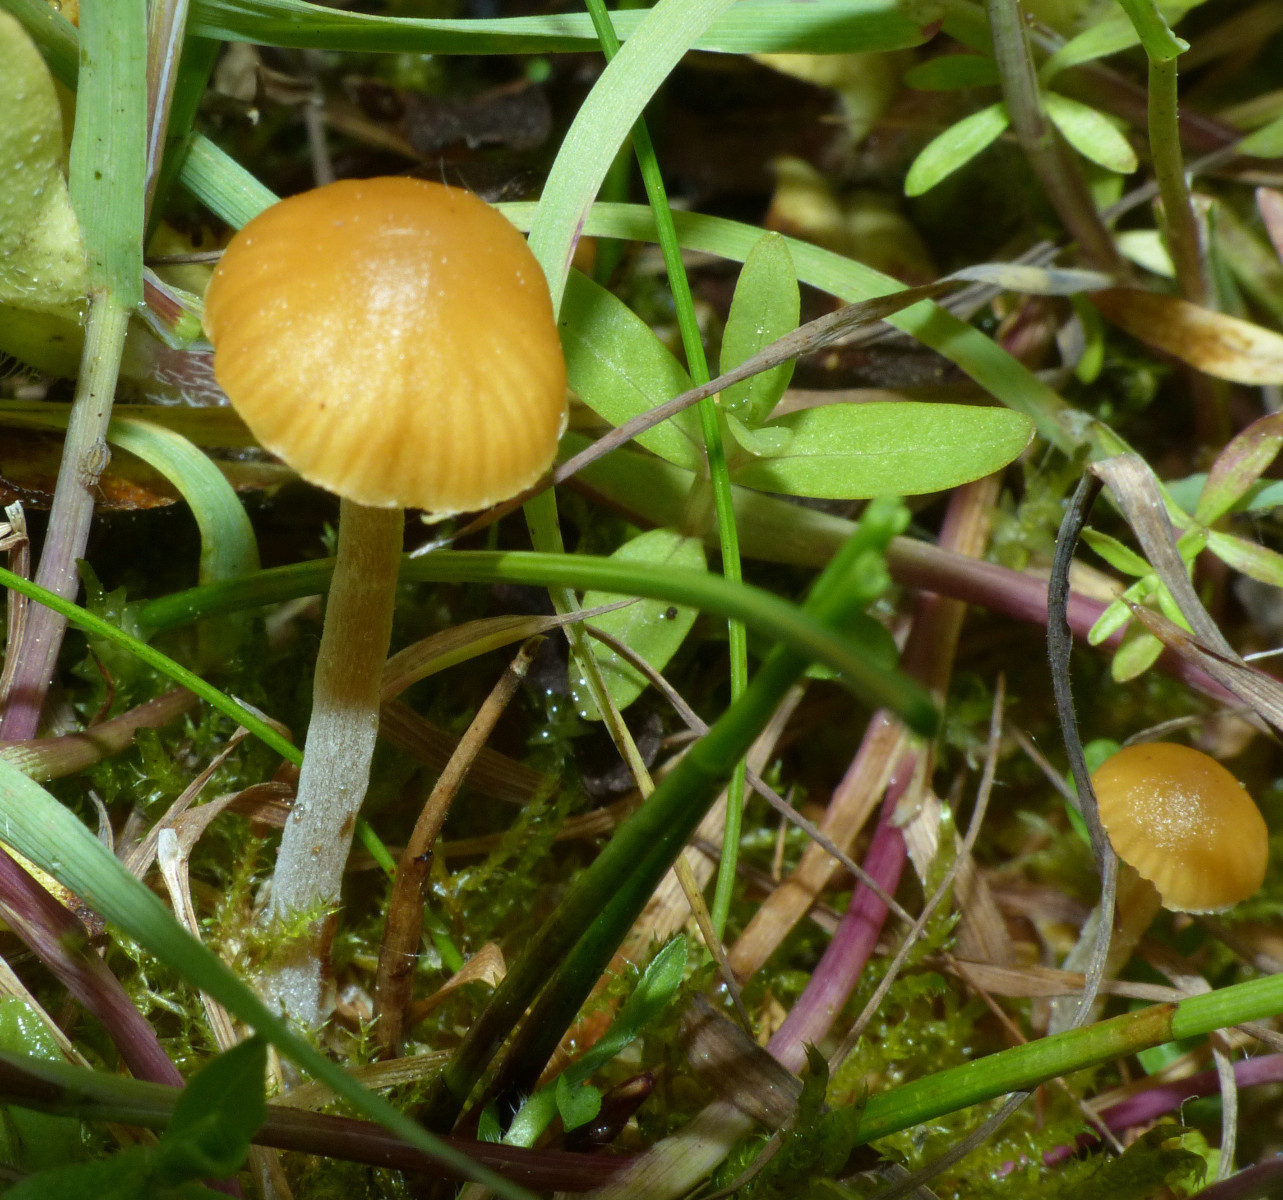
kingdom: Fungi
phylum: Basidiomycota
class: Agaricomycetes
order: Agaricales
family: Hymenogastraceae
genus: Galerina
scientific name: Galerina
